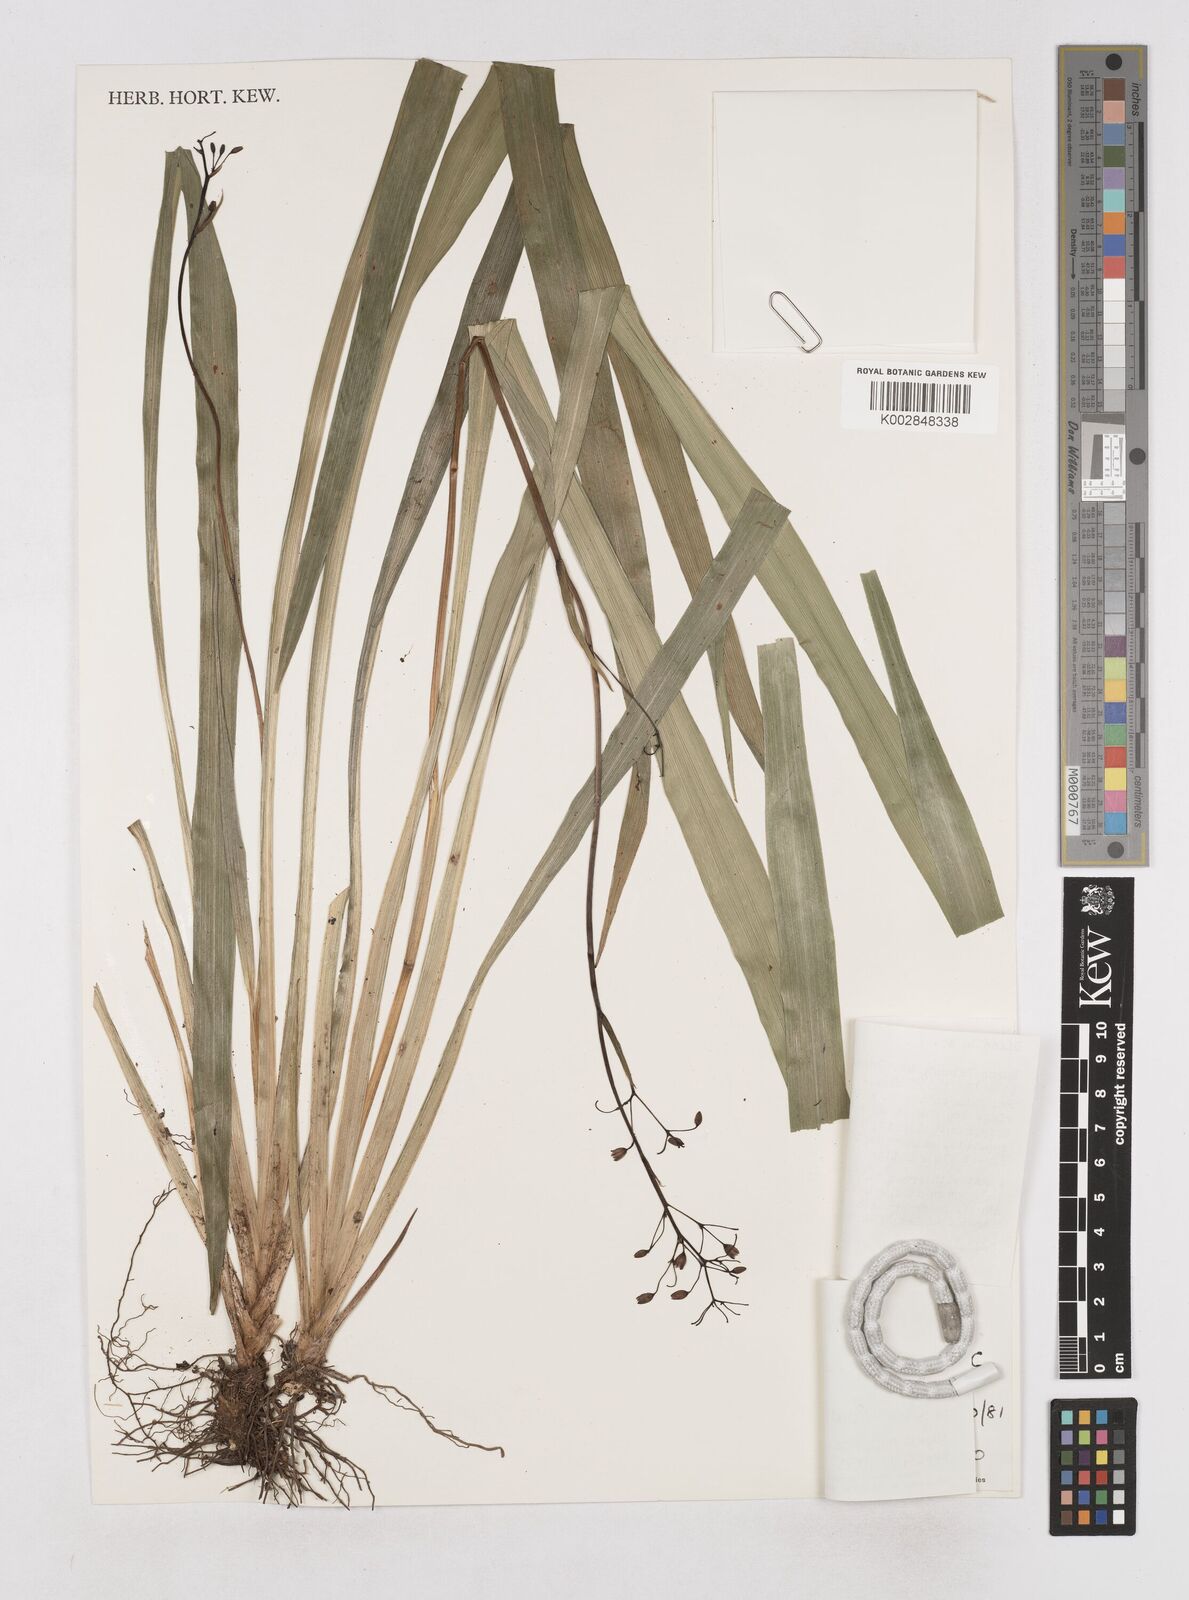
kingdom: Plantae
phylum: Tracheophyta
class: Liliopsida
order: Asparagales
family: Asphodelaceae
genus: Dianella
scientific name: Dianella ensifolia
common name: New zealand lilyplant
